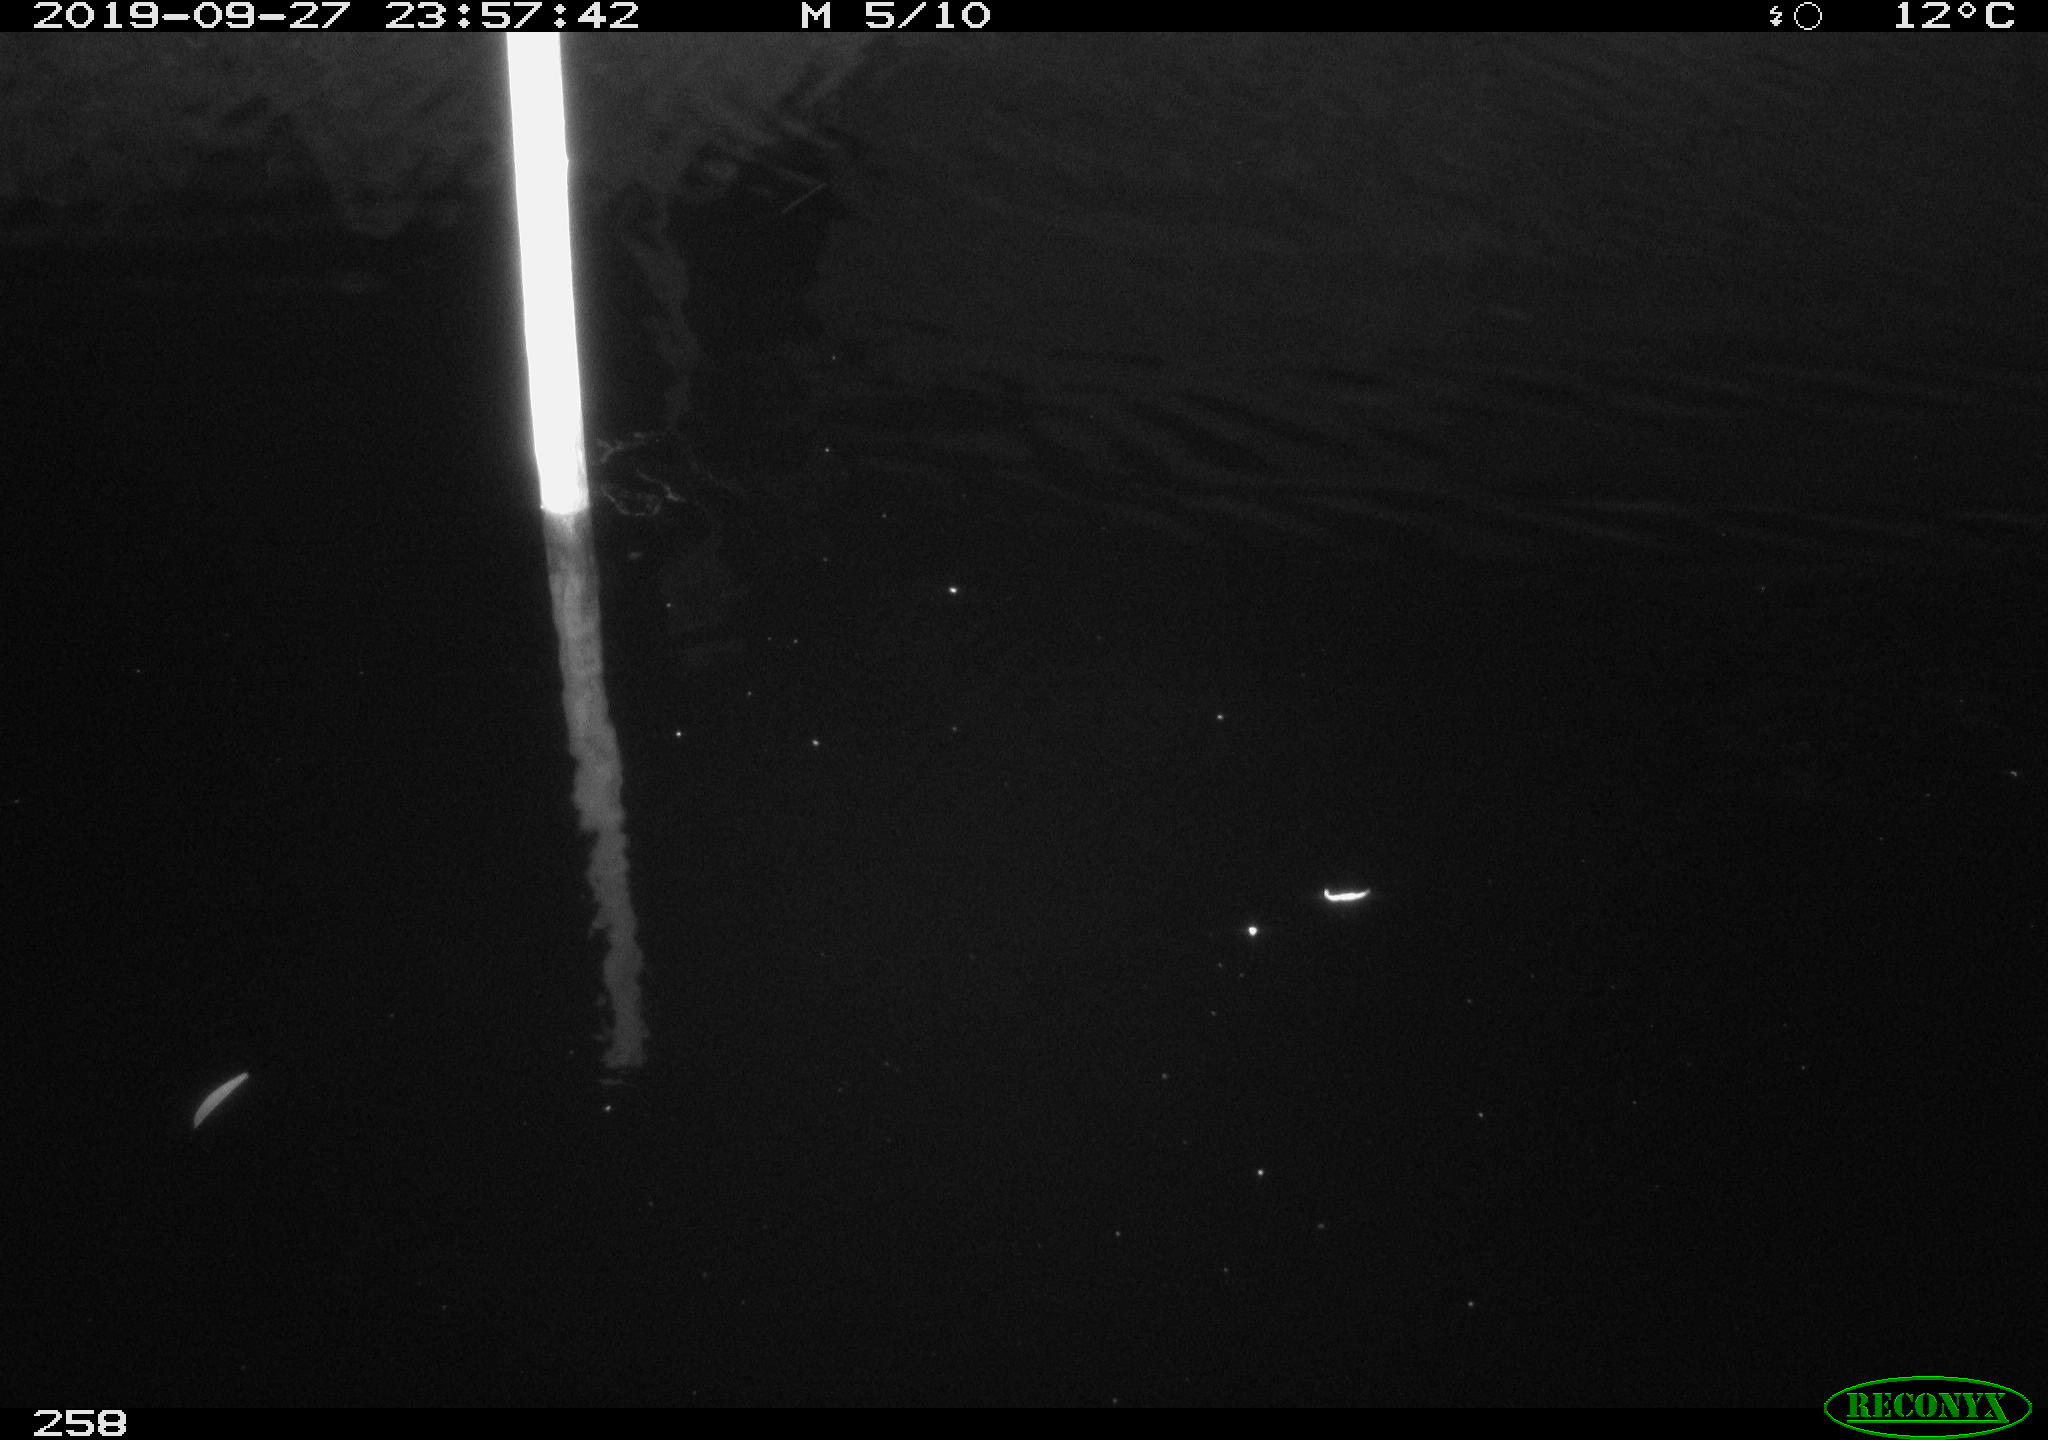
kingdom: Animalia
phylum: Chordata
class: Aves
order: Anseriformes
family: Anatidae
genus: Anas
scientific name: Anas platyrhynchos
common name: Mallard
